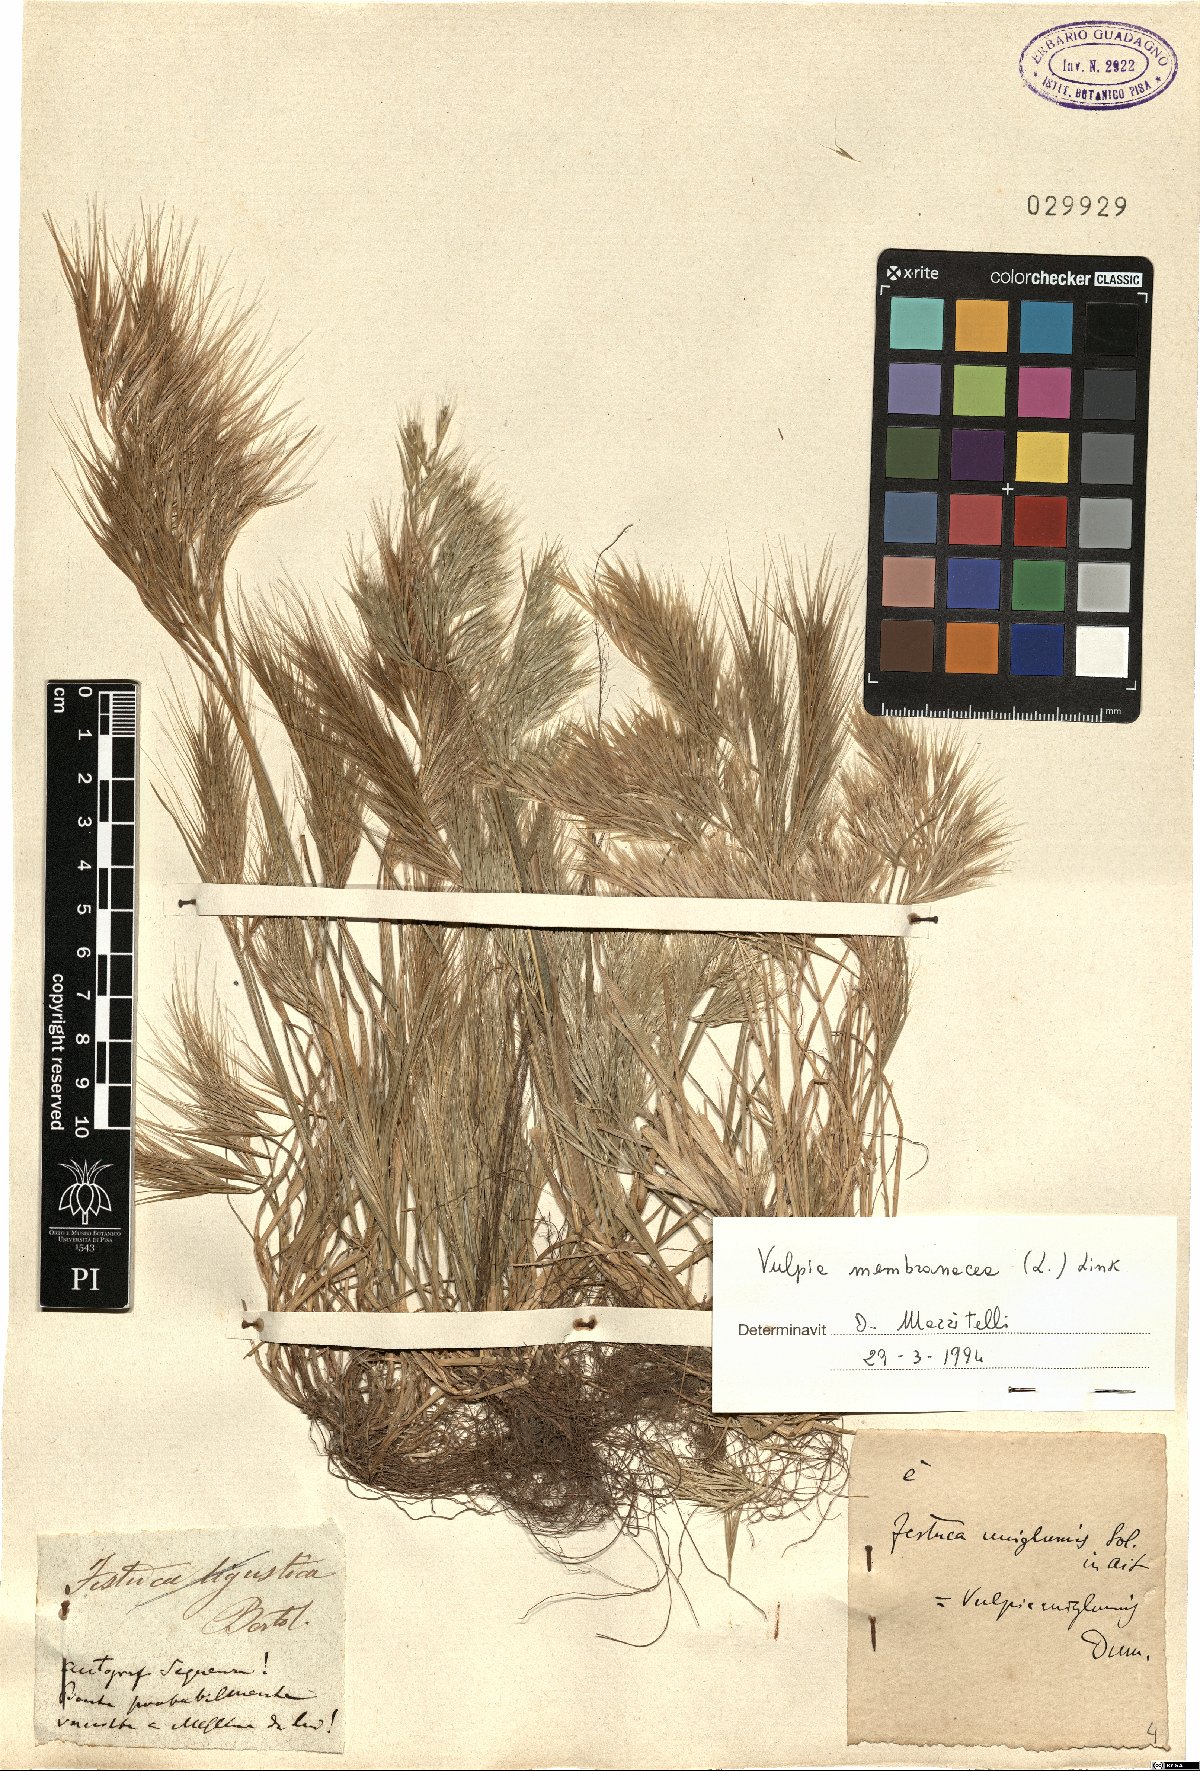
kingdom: Plantae
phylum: Tracheophyta
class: Liliopsida
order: Poales
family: Poaceae
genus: Festuca
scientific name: Festuca membranacea
